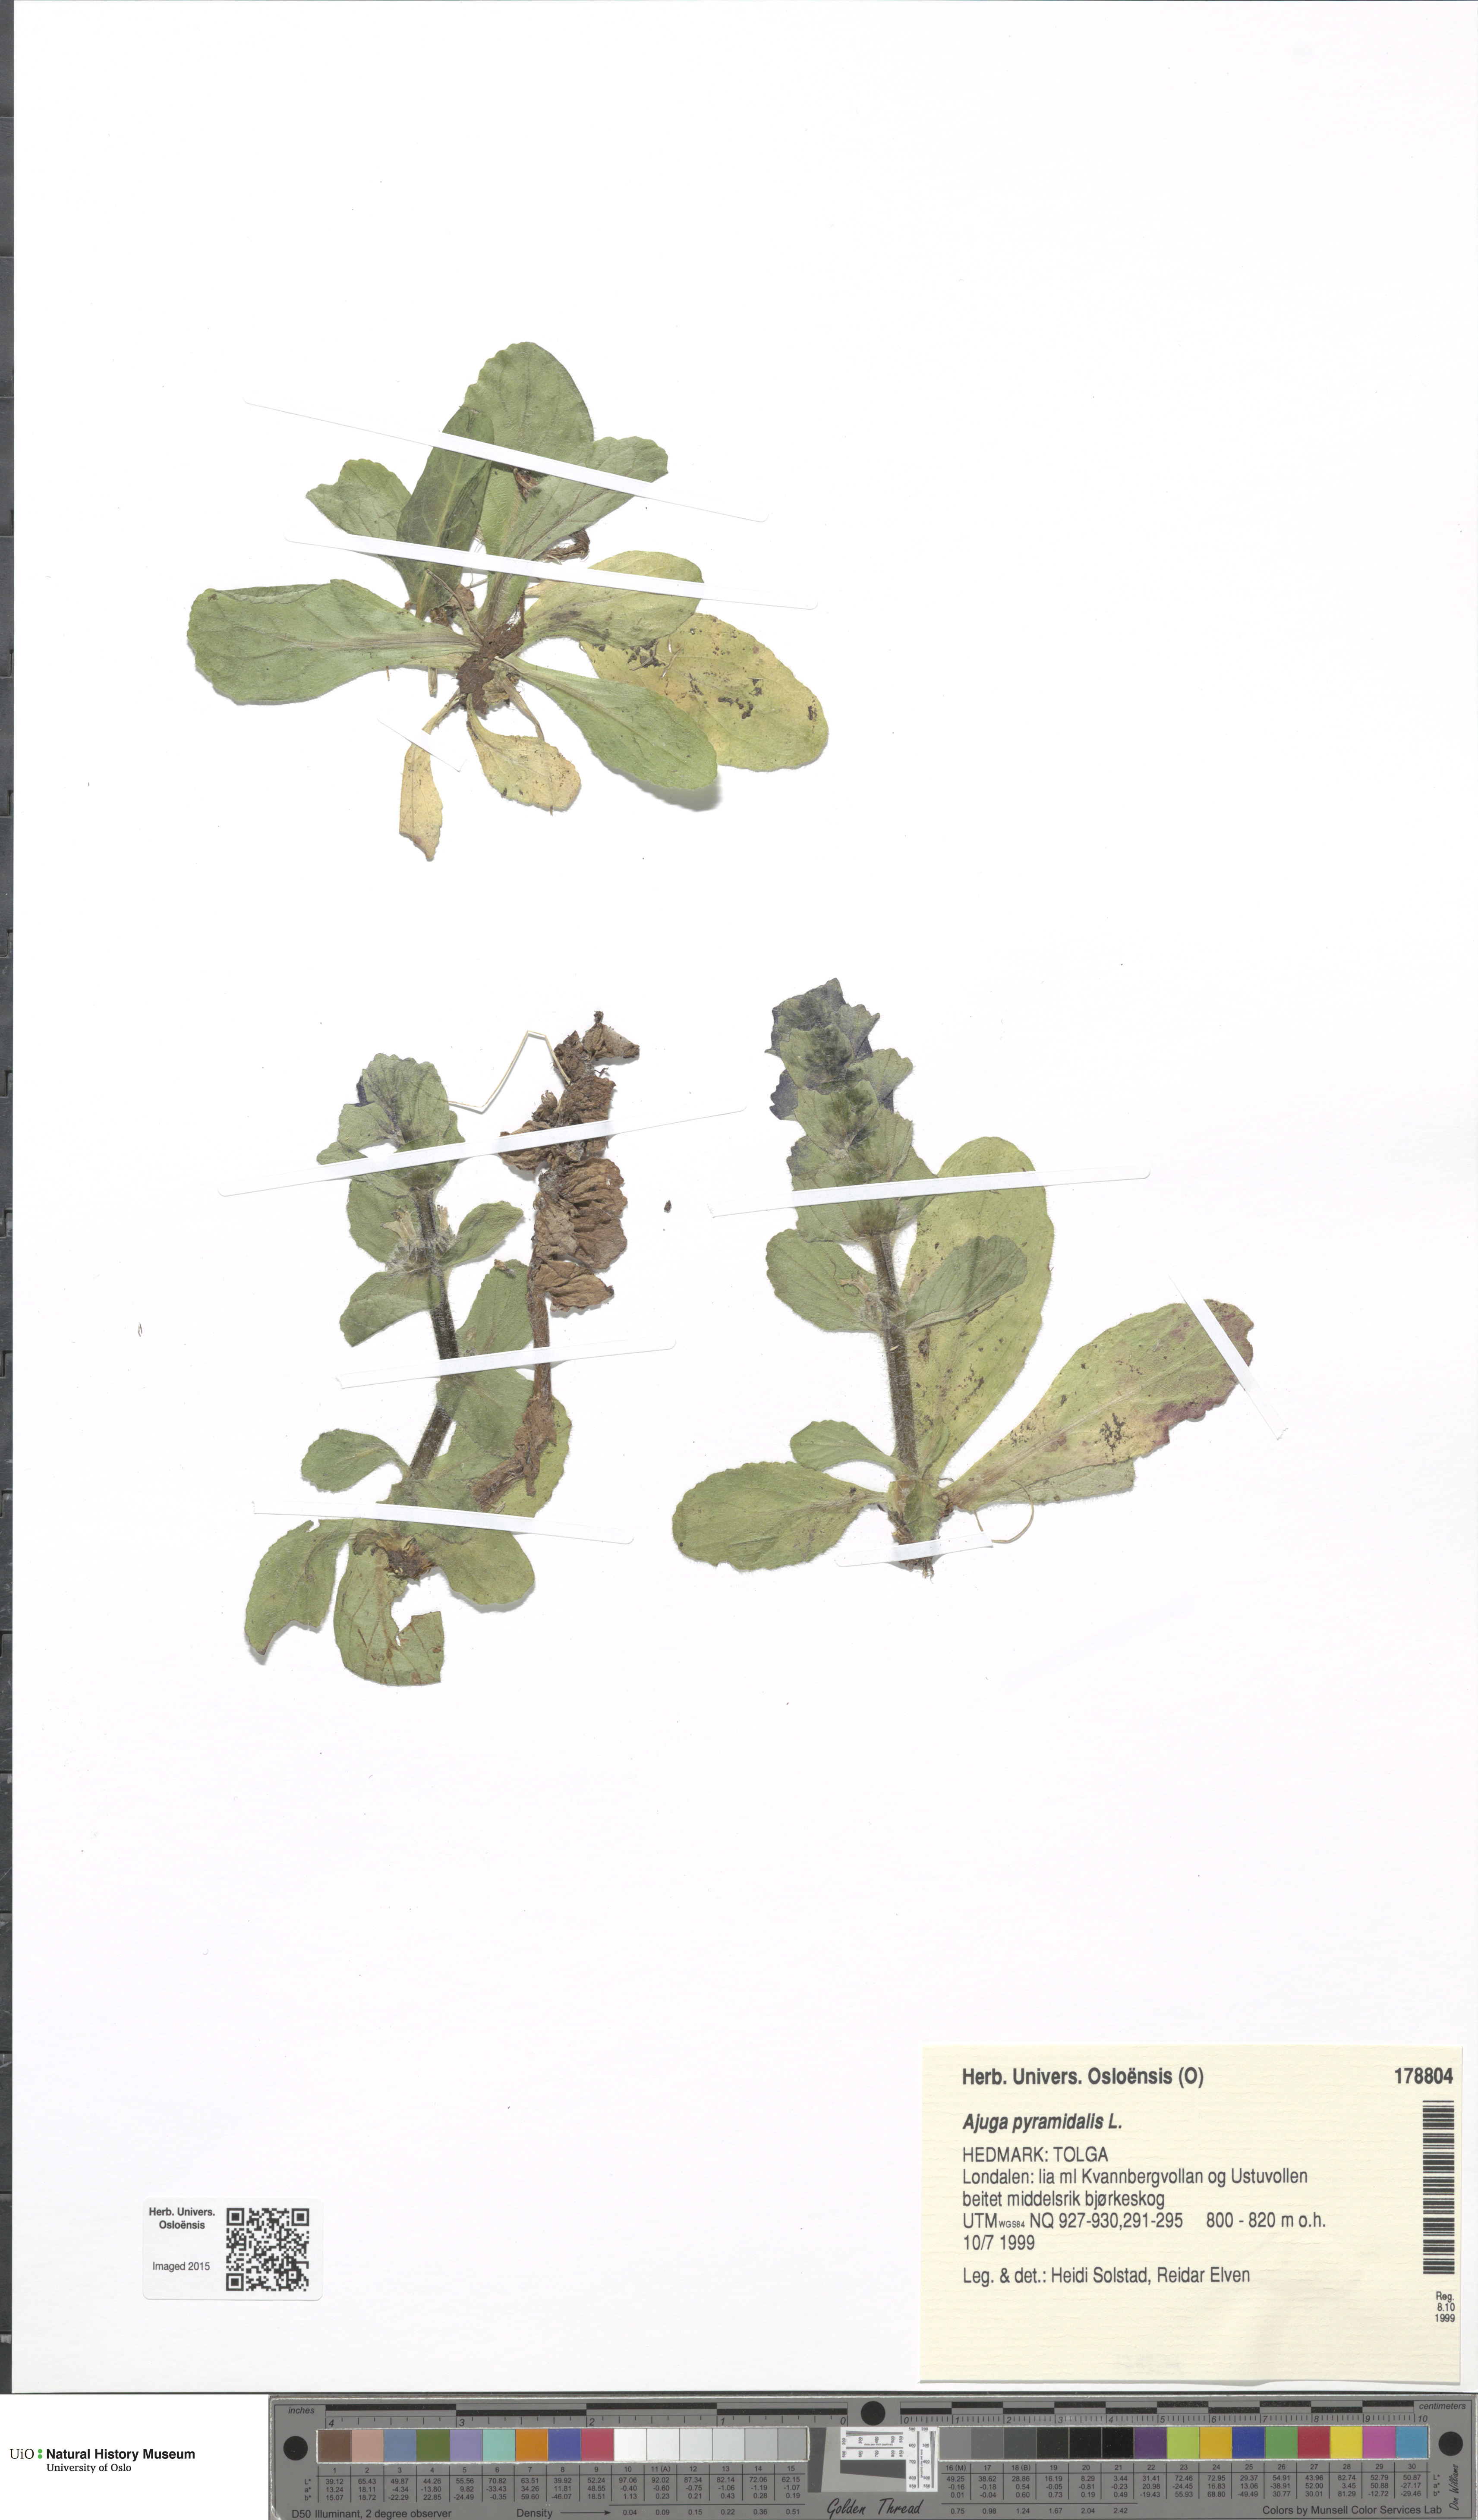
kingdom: Plantae
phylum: Tracheophyta
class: Magnoliopsida
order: Lamiales
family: Lamiaceae
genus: Ajuga
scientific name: Ajuga pyramidalis
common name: Pyramid bugle
